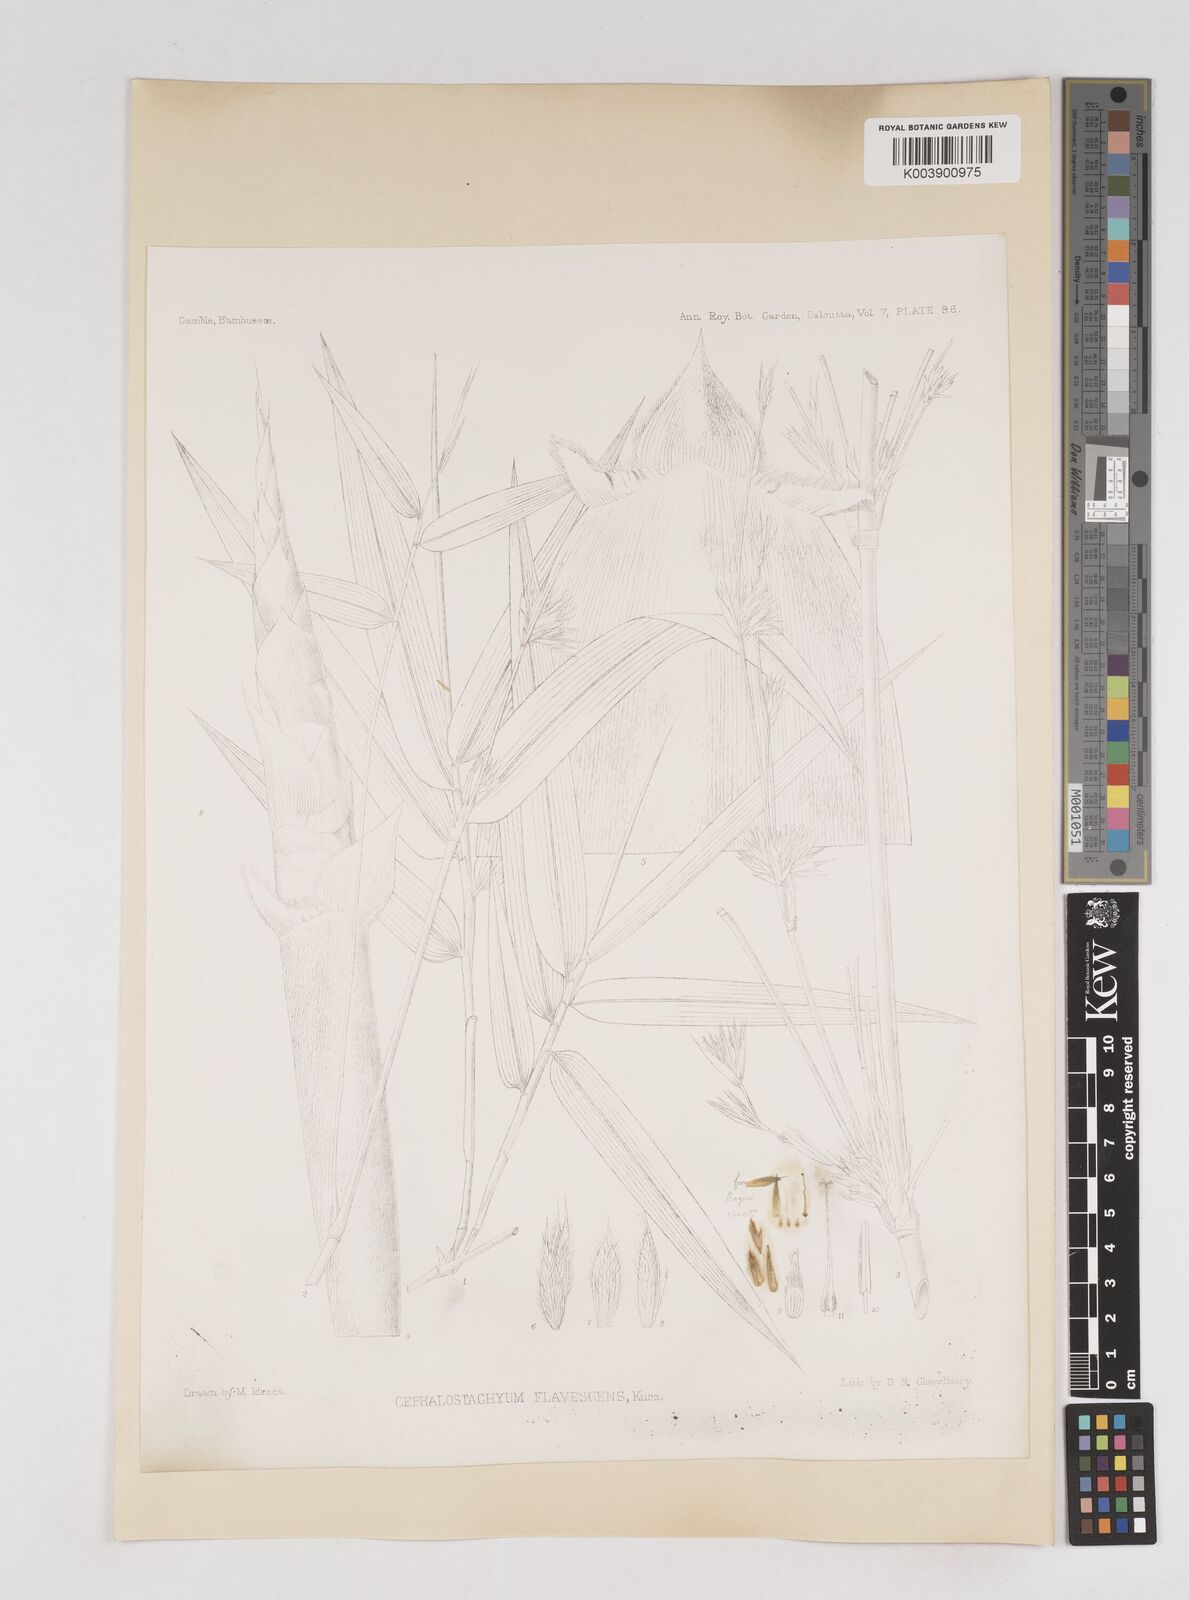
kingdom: Plantae
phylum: Tracheophyta
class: Liliopsida
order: Poales
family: Poaceae
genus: Cephalostachyum
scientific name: Cephalostachyum flavescens
